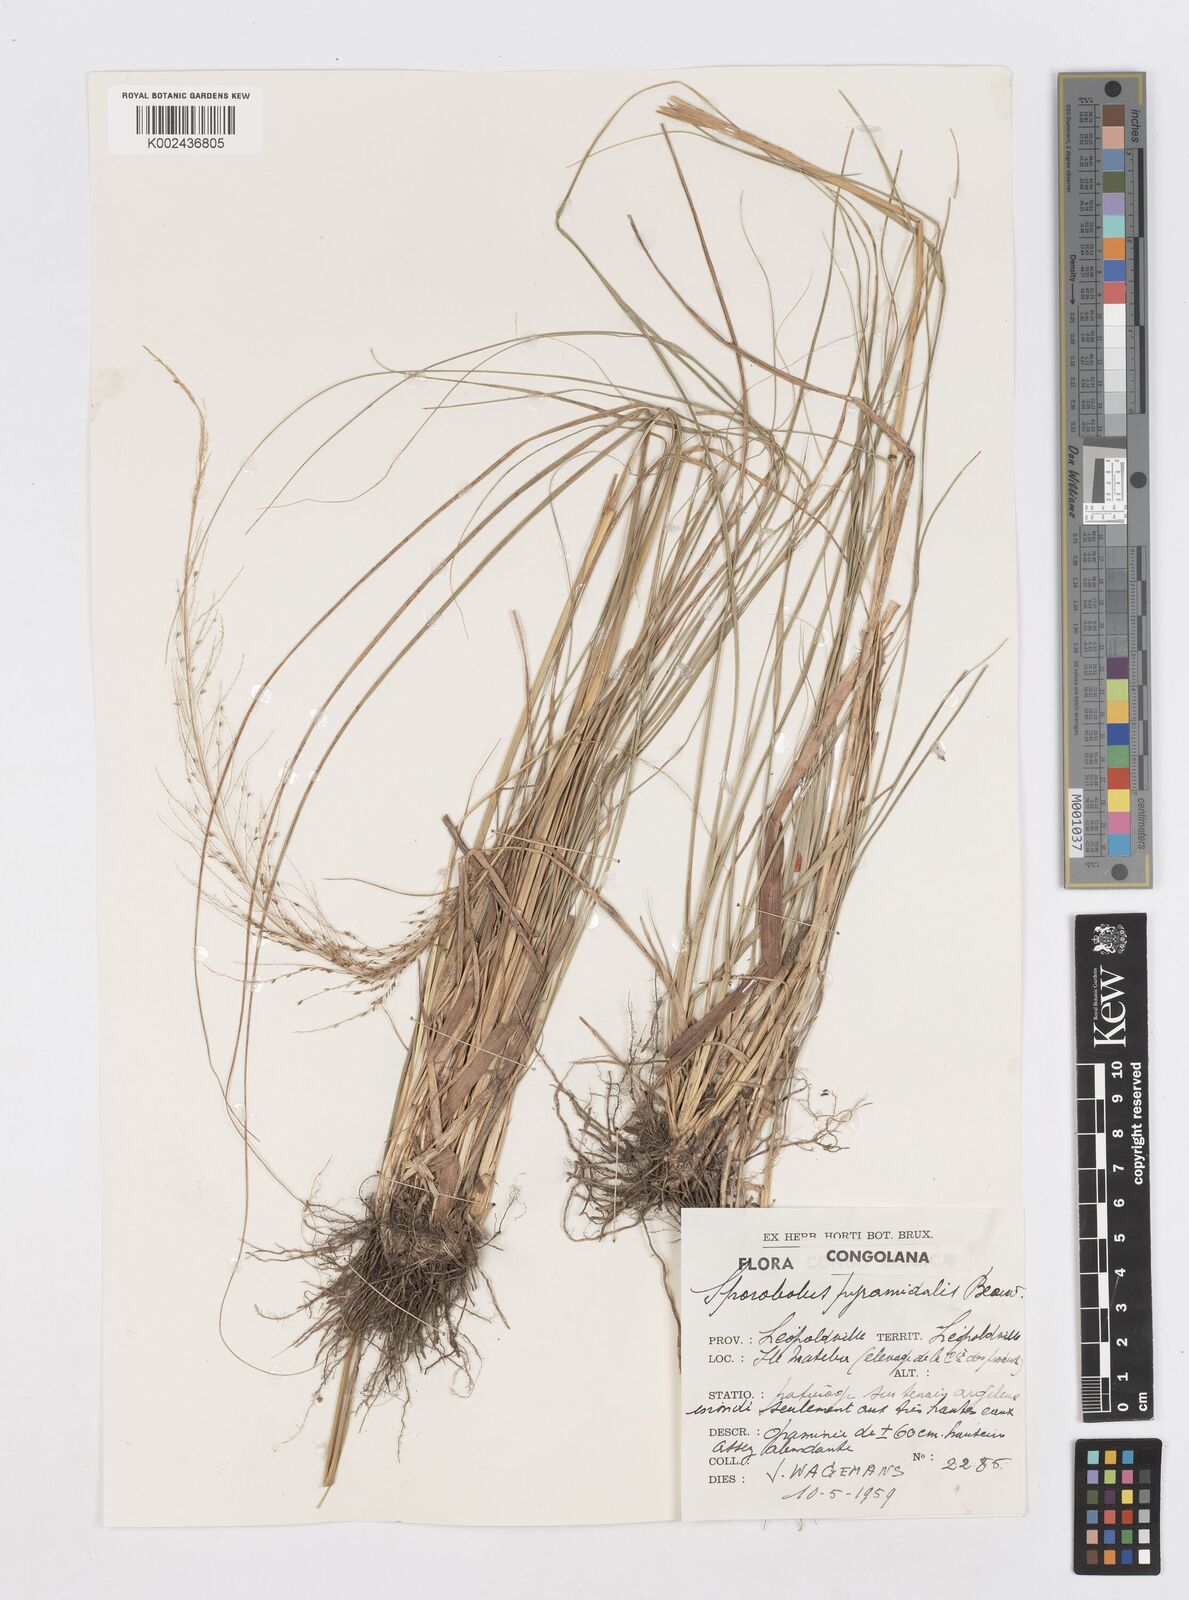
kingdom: Plantae
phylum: Tracheophyta
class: Liliopsida
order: Poales
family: Poaceae
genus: Sporobolus
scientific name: Sporobolus pyramidalis
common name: West indian dropseed
